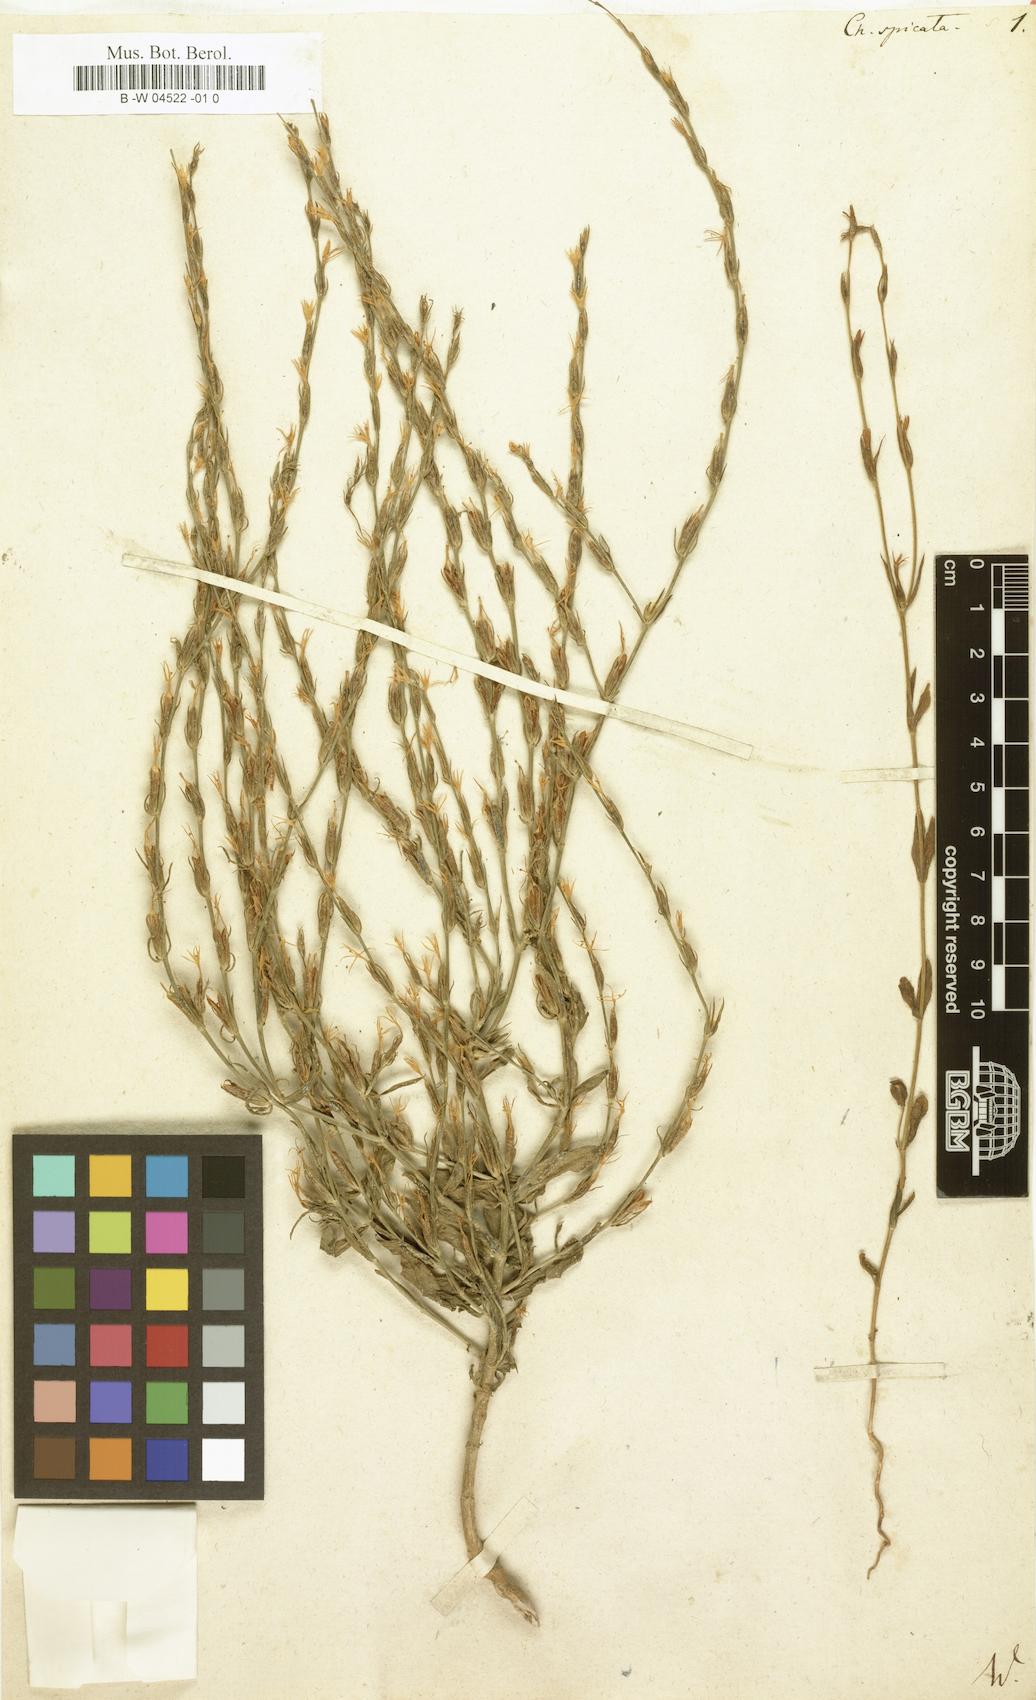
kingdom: Plantae
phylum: Tracheophyta
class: Magnoliopsida
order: Gentianales
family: Gentianaceae
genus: Schenkia
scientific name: Schenkia spicata
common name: Spiked centaury
